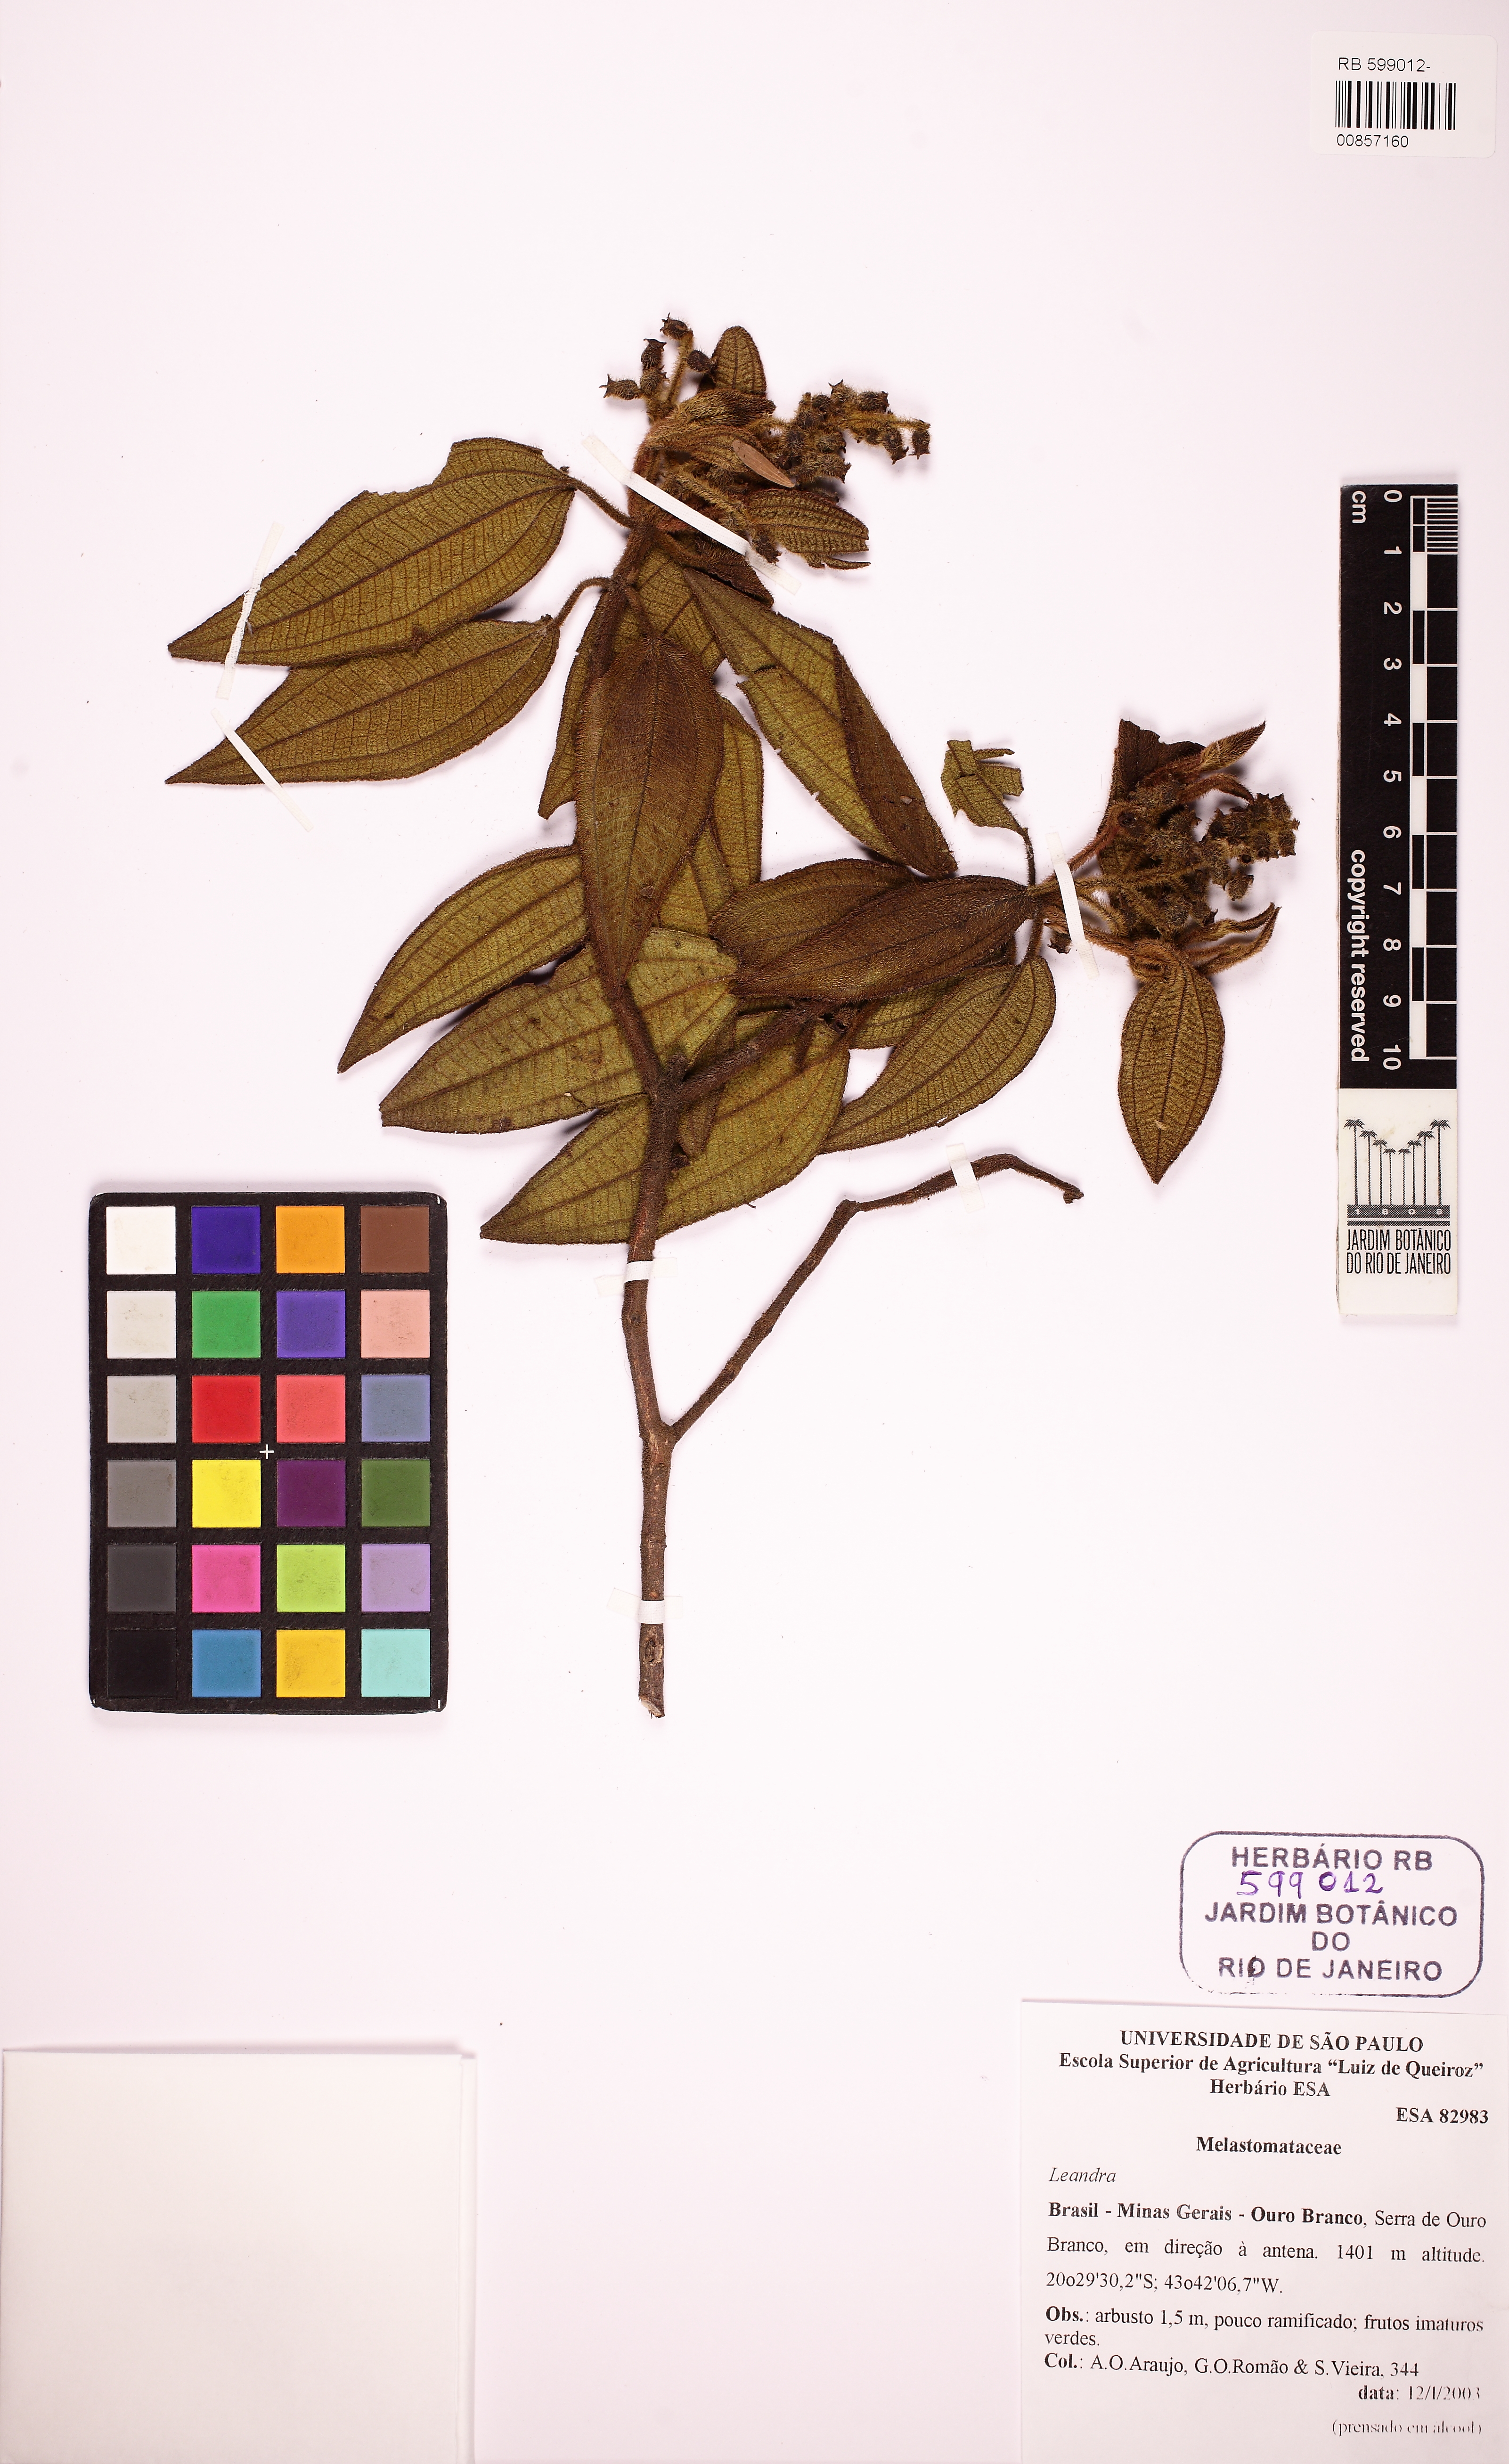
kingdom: Plantae
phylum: Tracheophyta
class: Magnoliopsida
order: Myrtales
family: Melastomataceae
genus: Miconia
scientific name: Miconia auricoma
